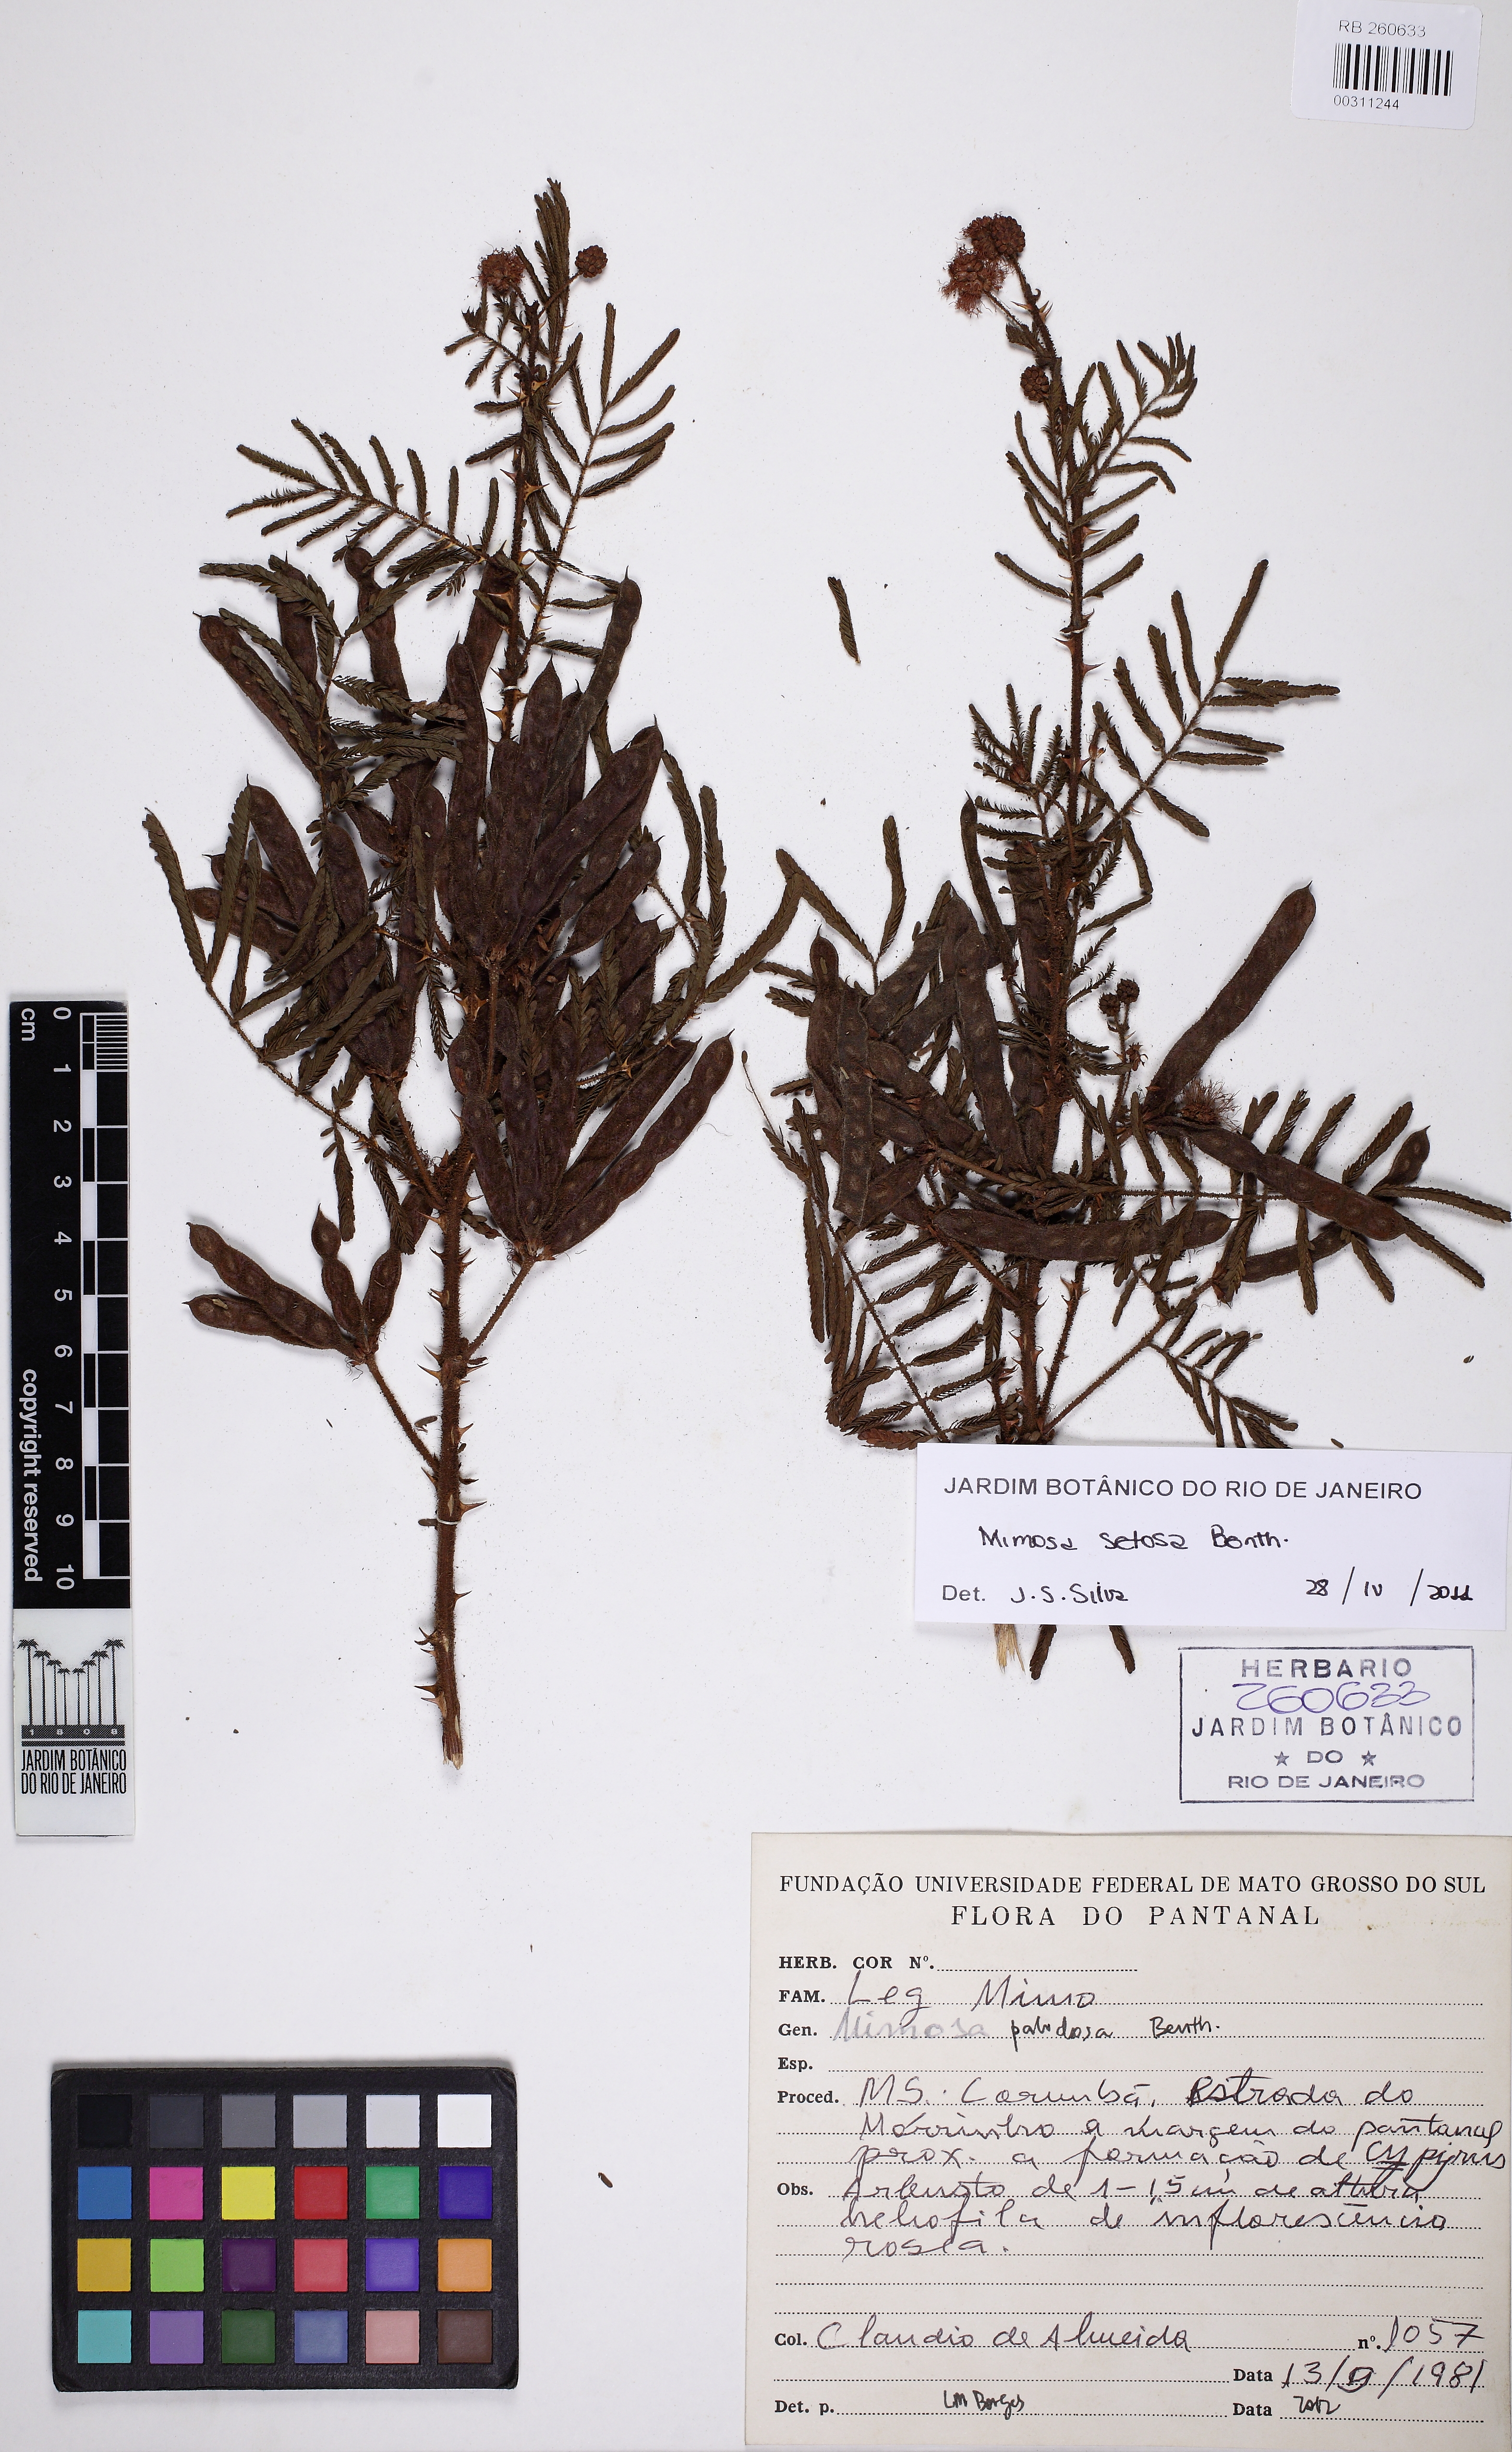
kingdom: Plantae
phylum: Tracheophyta
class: Magnoliopsida
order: Fabales
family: Fabaceae
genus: Mimosa
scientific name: Mimosa setosa
